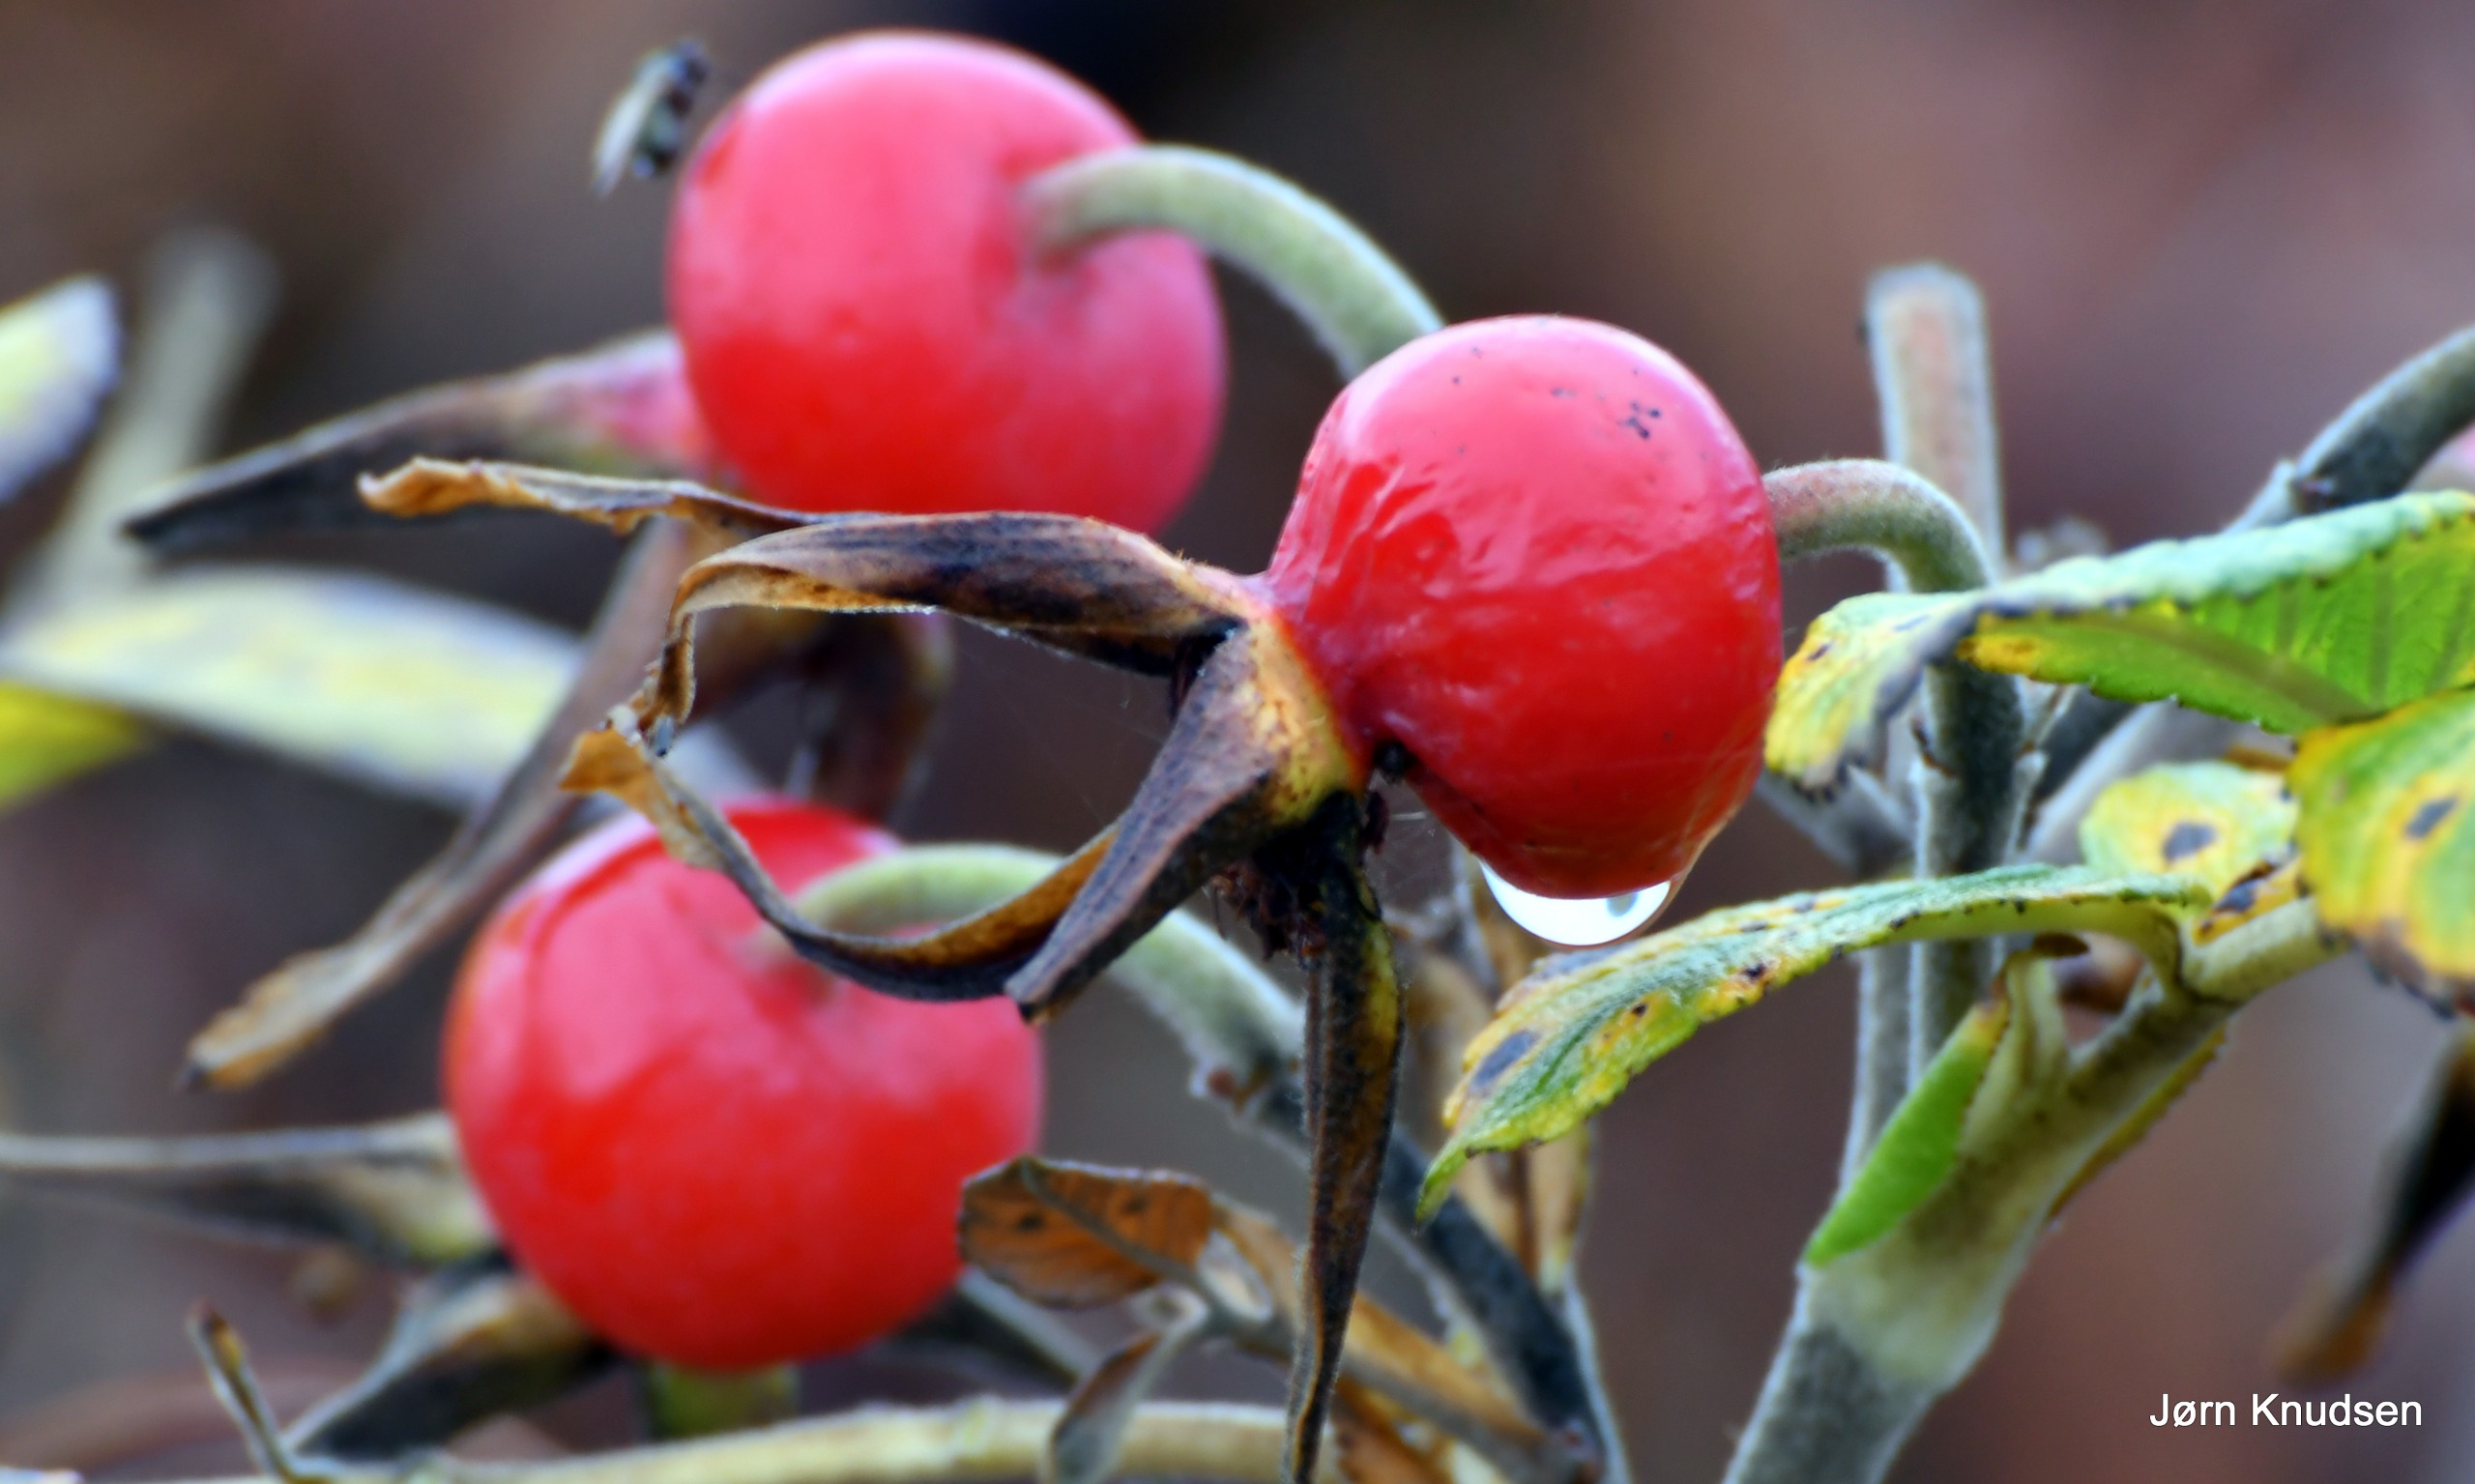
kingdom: Plantae
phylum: Tracheophyta
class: Magnoliopsida
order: Rosales
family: Rosaceae
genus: Rosa
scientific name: Rosa rugosa
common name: Rynket rose
